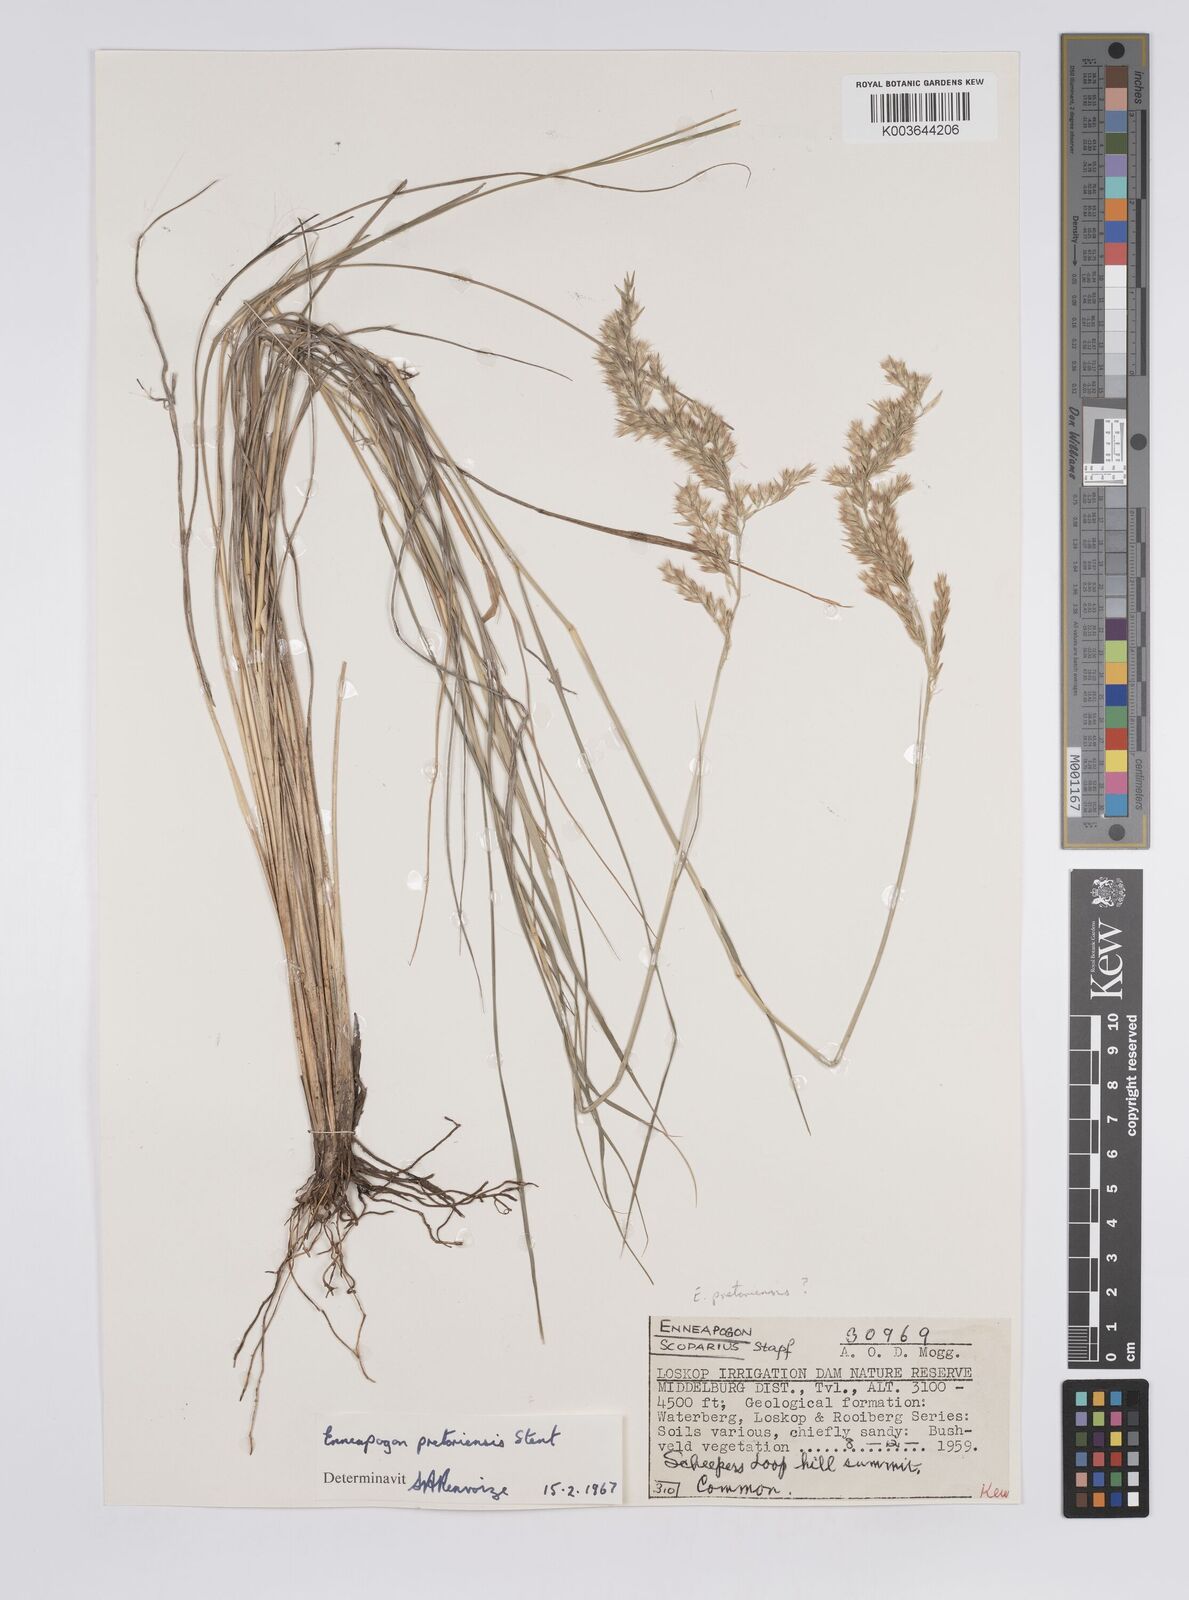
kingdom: Plantae
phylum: Tracheophyta
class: Liliopsida
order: Poales
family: Poaceae
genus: Enneapogon
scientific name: Enneapogon pretoriensis
